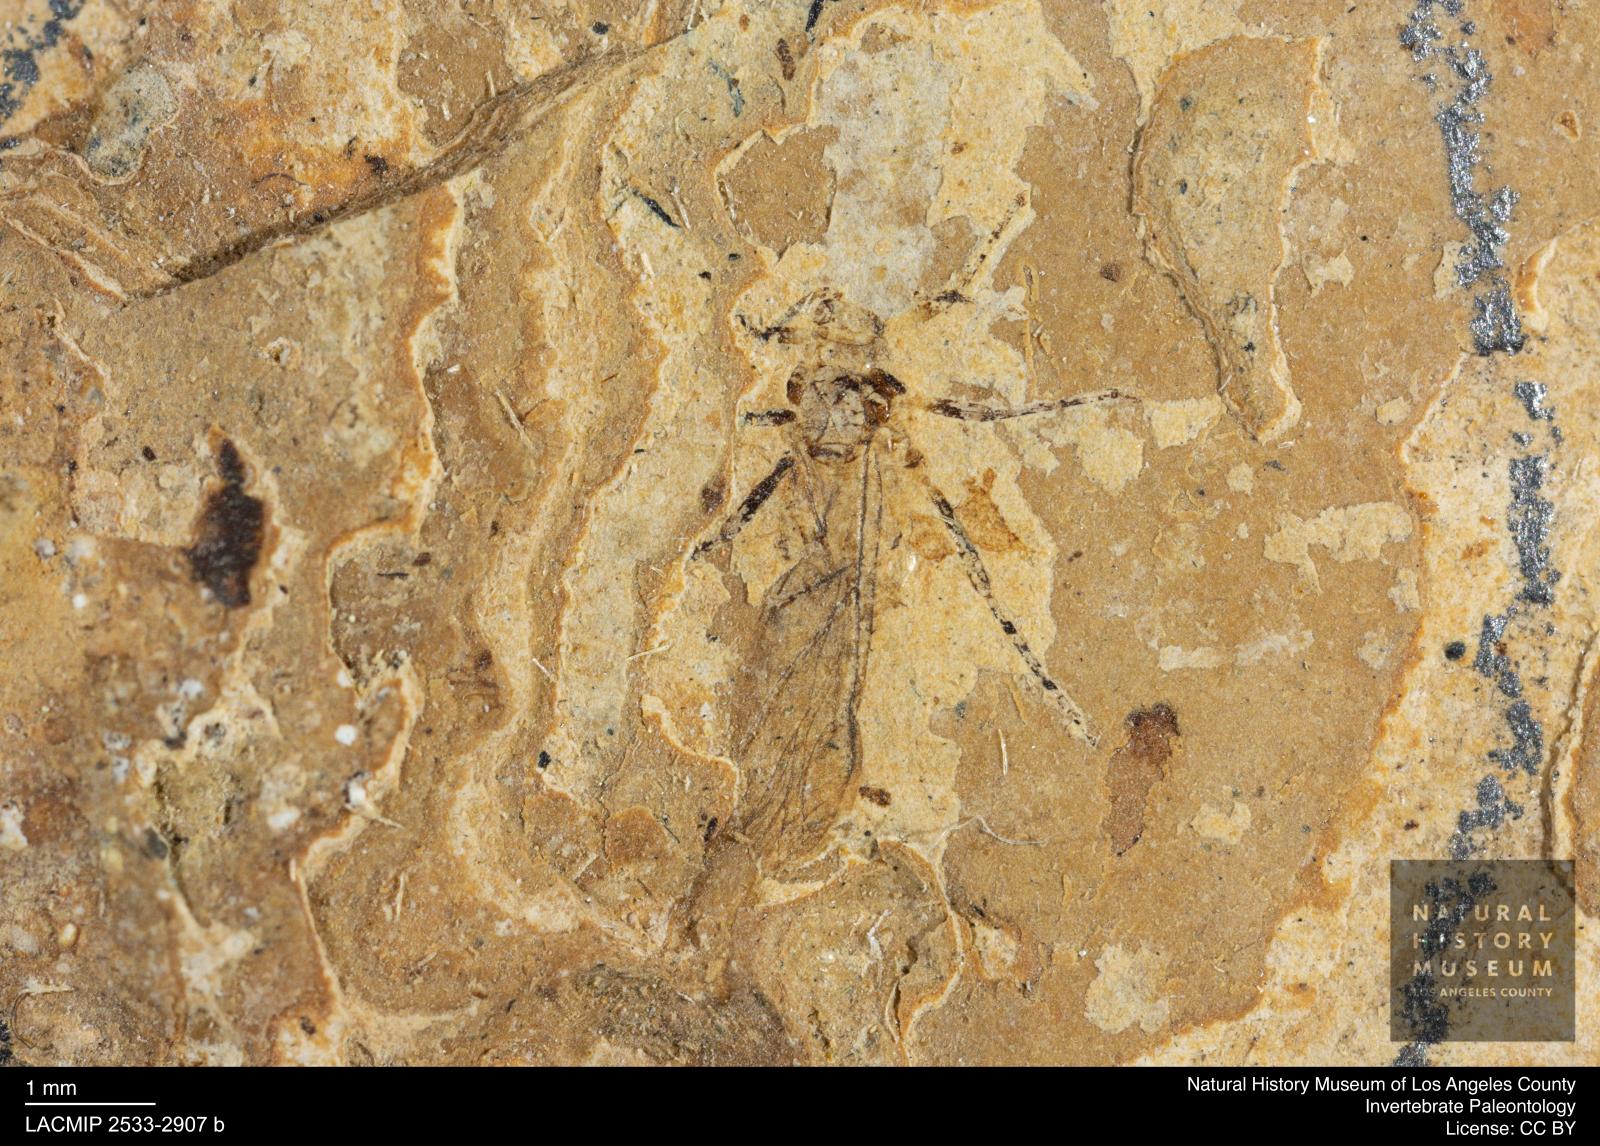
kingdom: Animalia
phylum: Arthropoda
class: Insecta
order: Hemiptera
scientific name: Hemiptera
